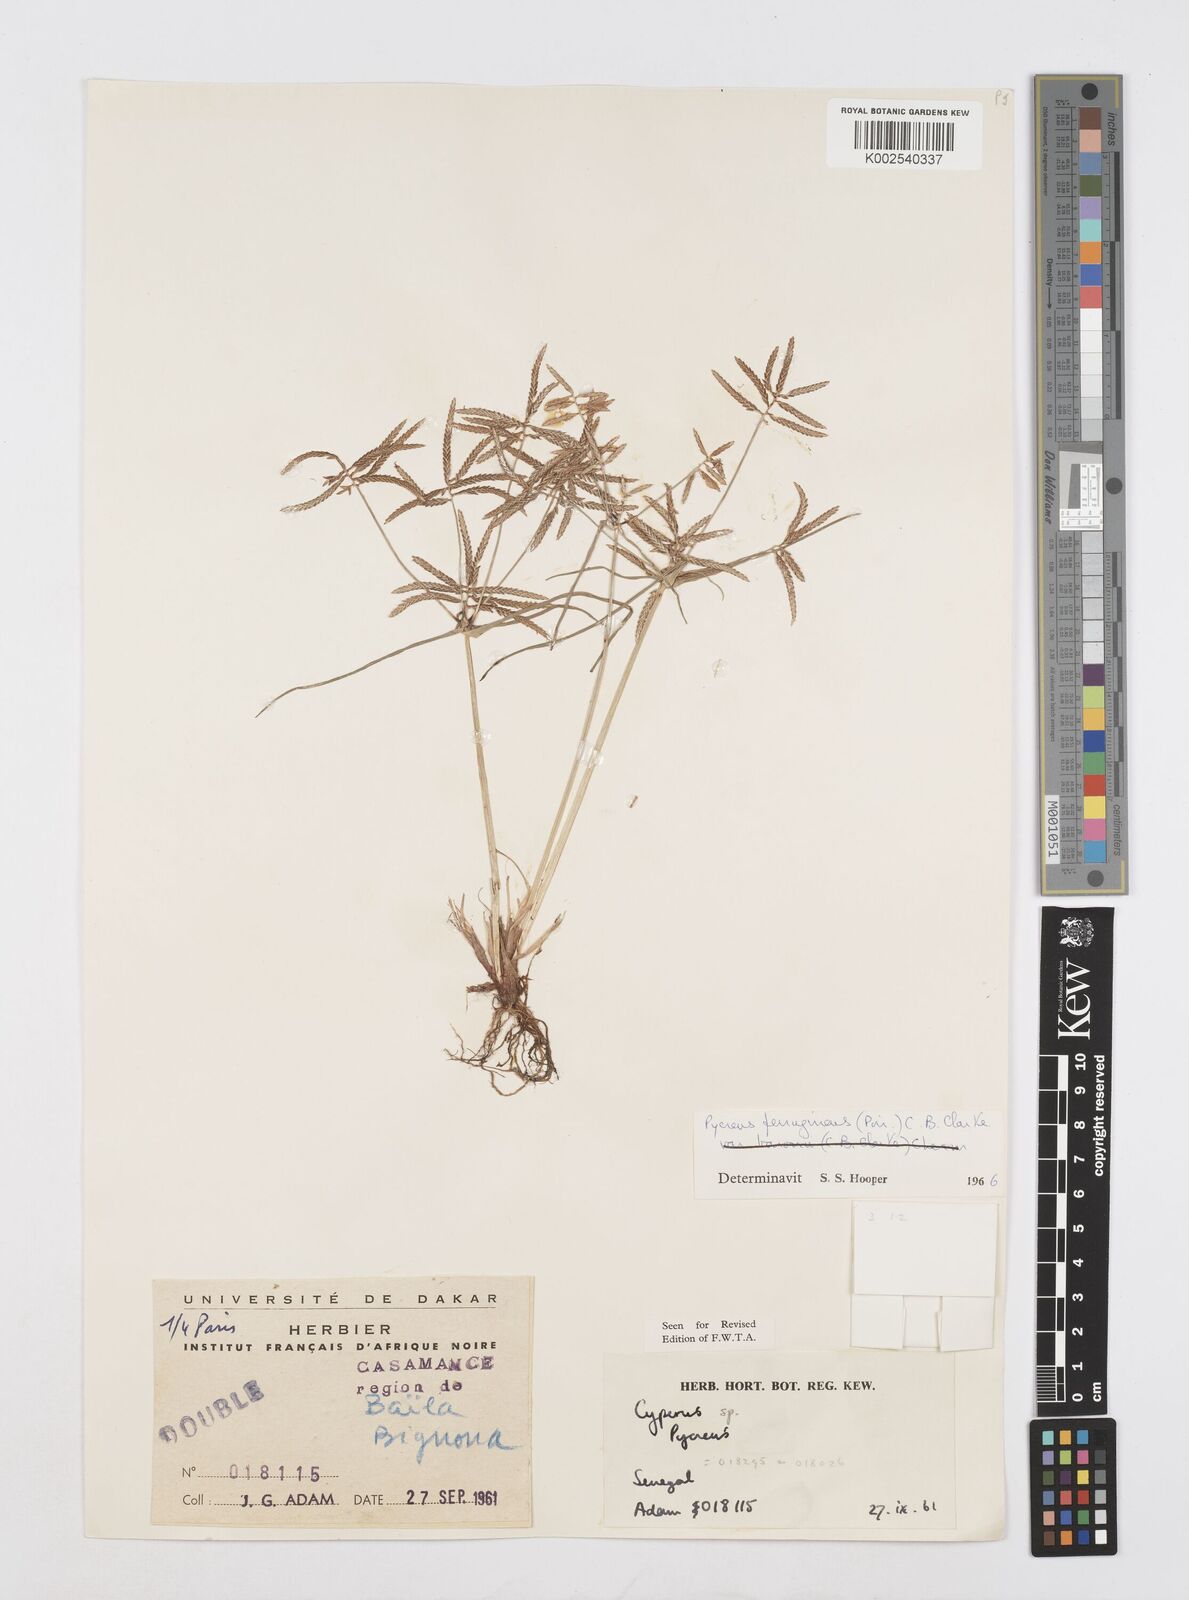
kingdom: Plantae
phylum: Tracheophyta
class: Liliopsida
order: Poales
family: Cyperaceae
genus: Cyperus
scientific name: Cyperus intactus
